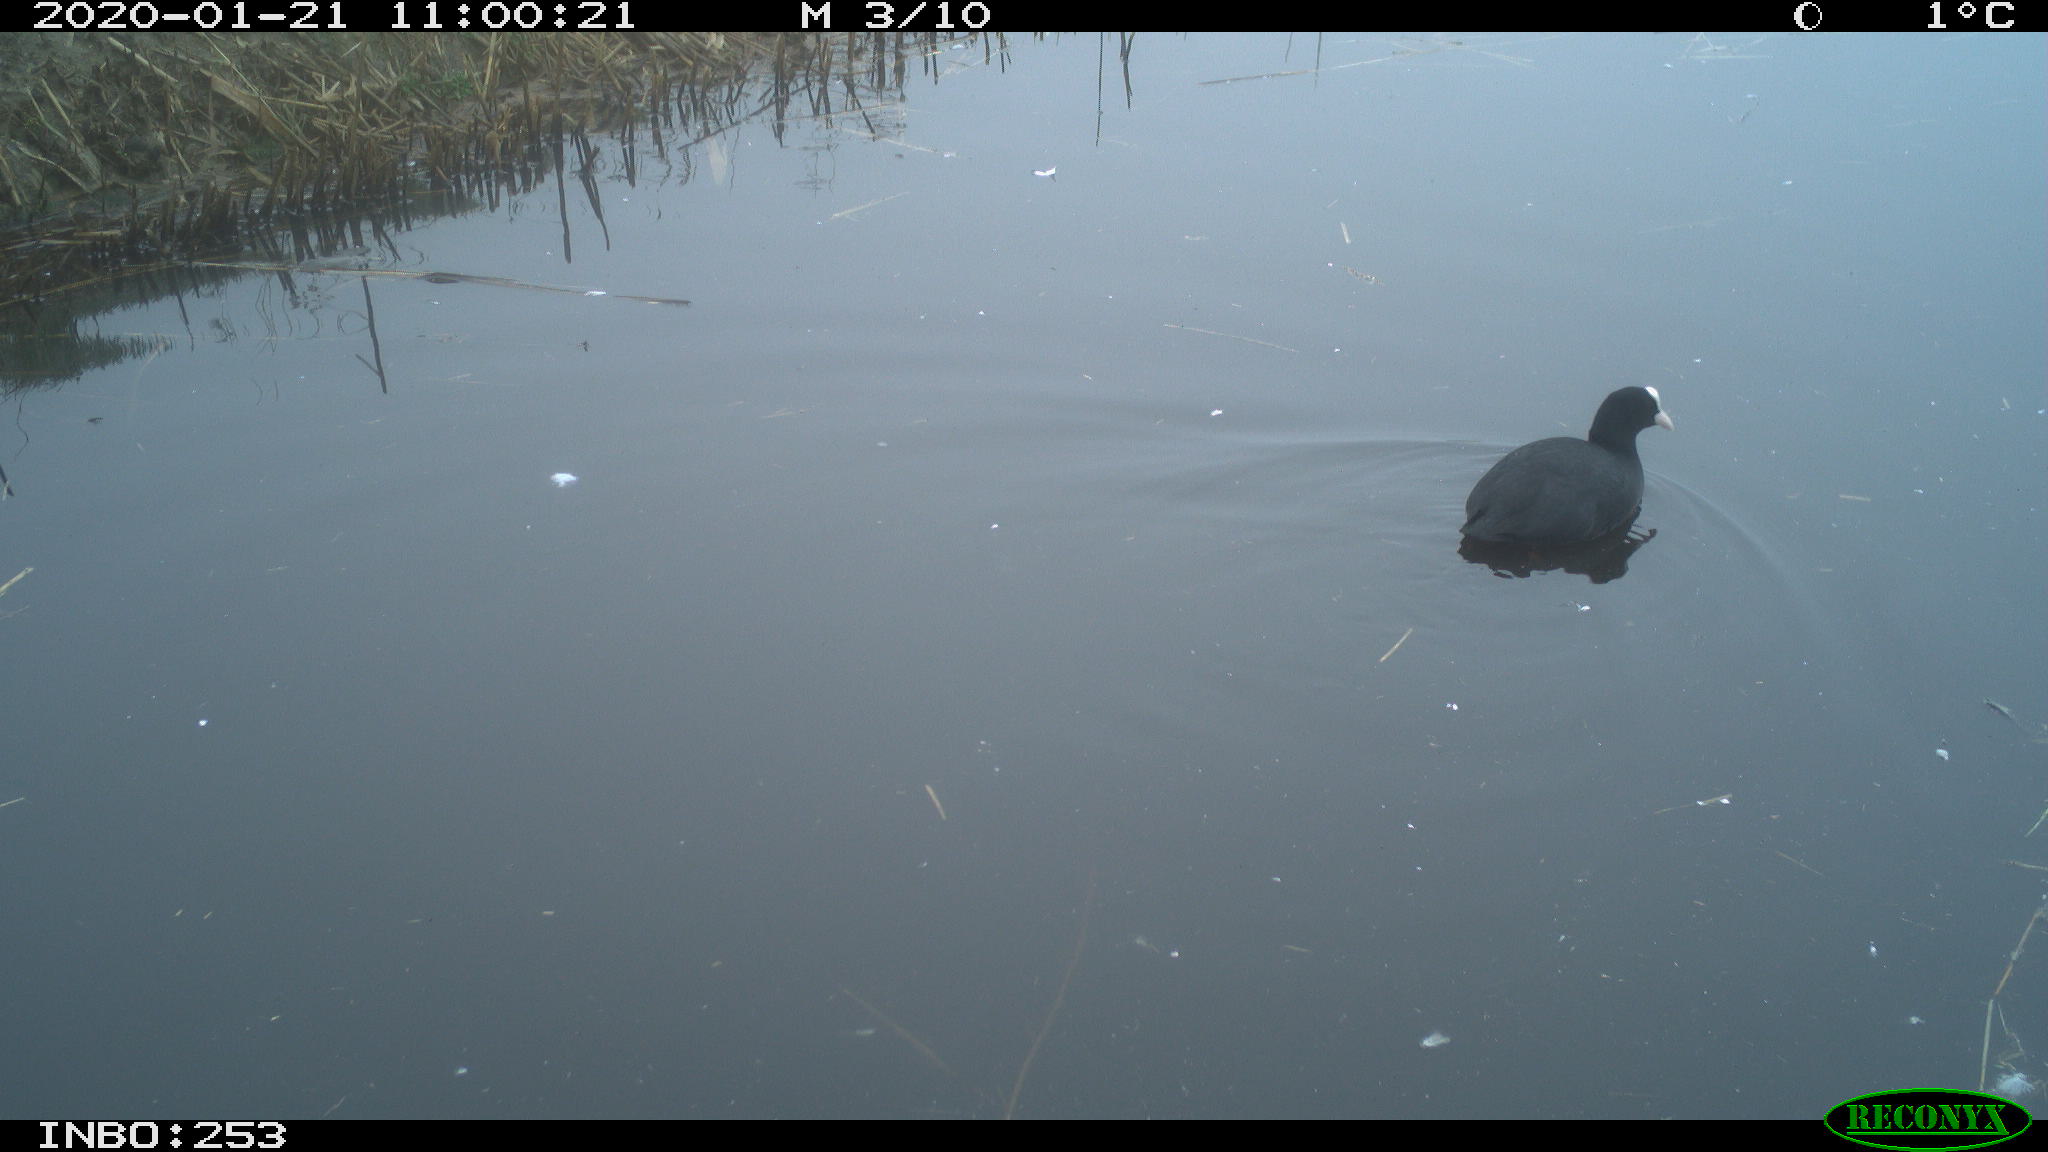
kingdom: Animalia
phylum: Chordata
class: Aves
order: Gruiformes
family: Rallidae
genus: Fulica
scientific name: Fulica atra
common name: Eurasian coot
